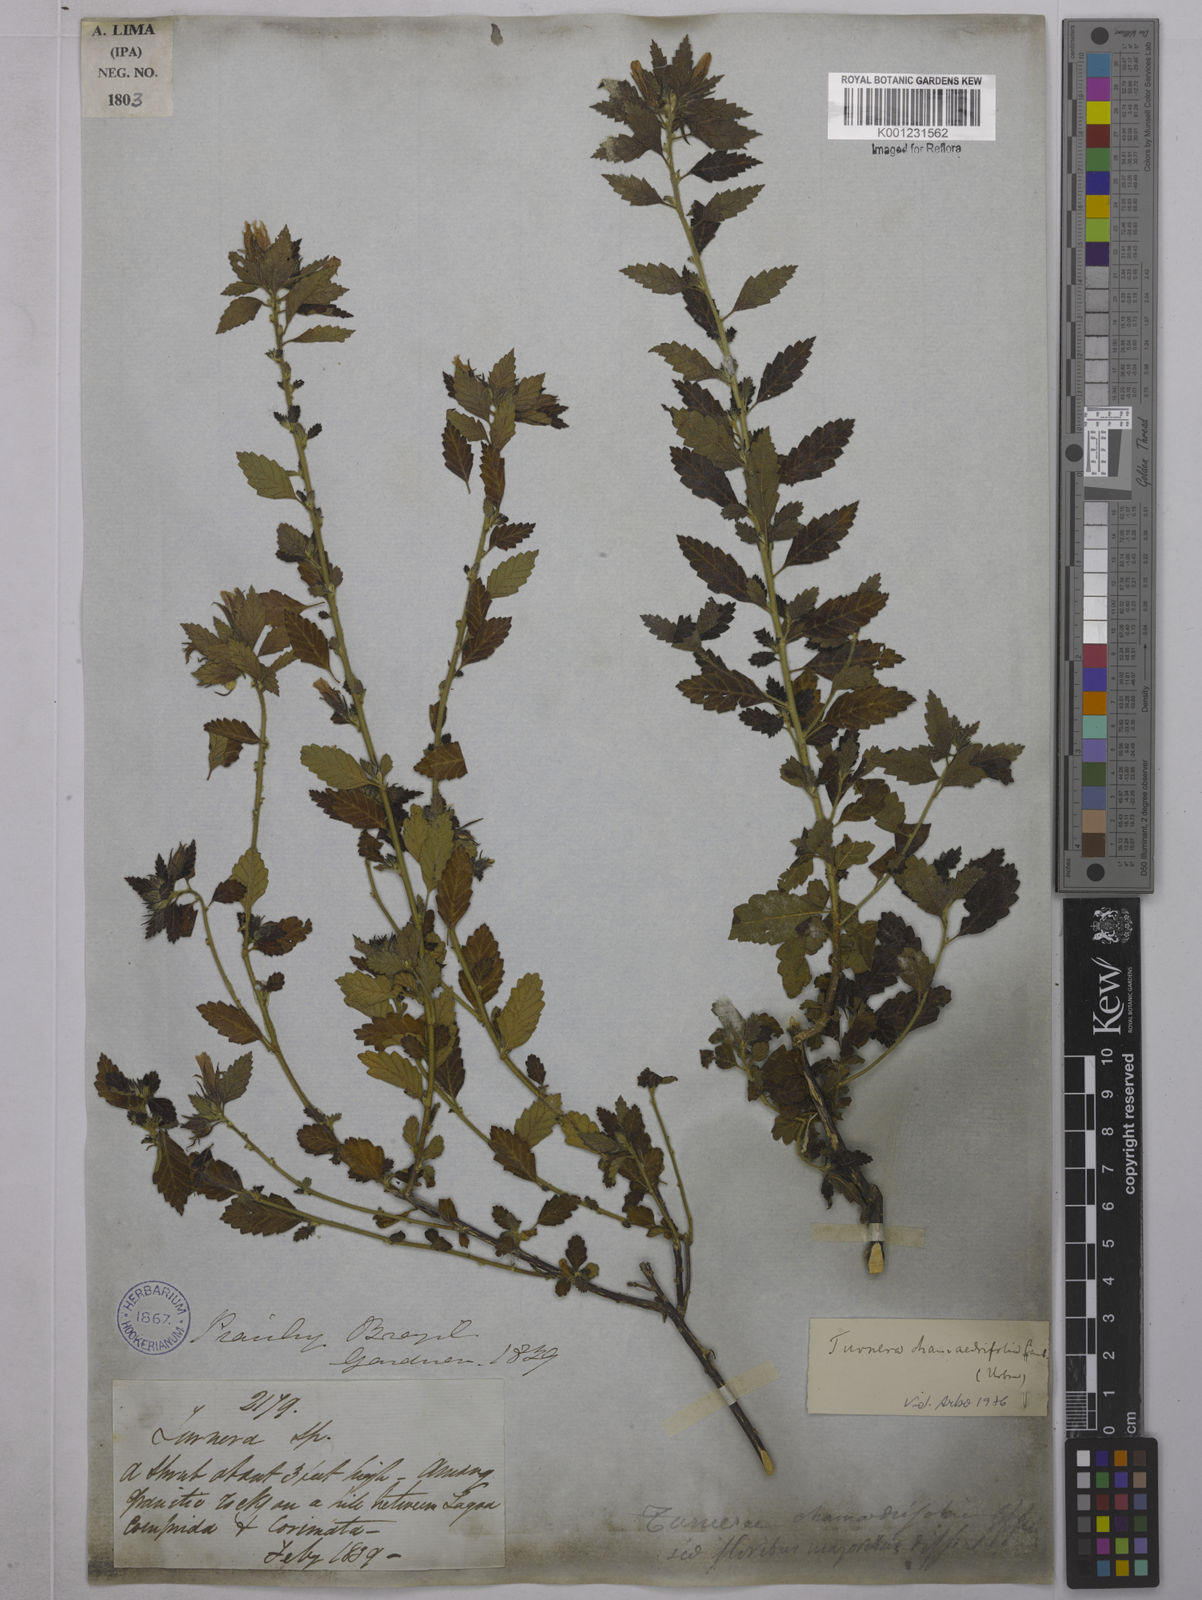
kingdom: Plantae
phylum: Tracheophyta
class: Magnoliopsida
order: Malpighiales
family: Turneraceae
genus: Turnera
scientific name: Turnera chamaedrifolia
